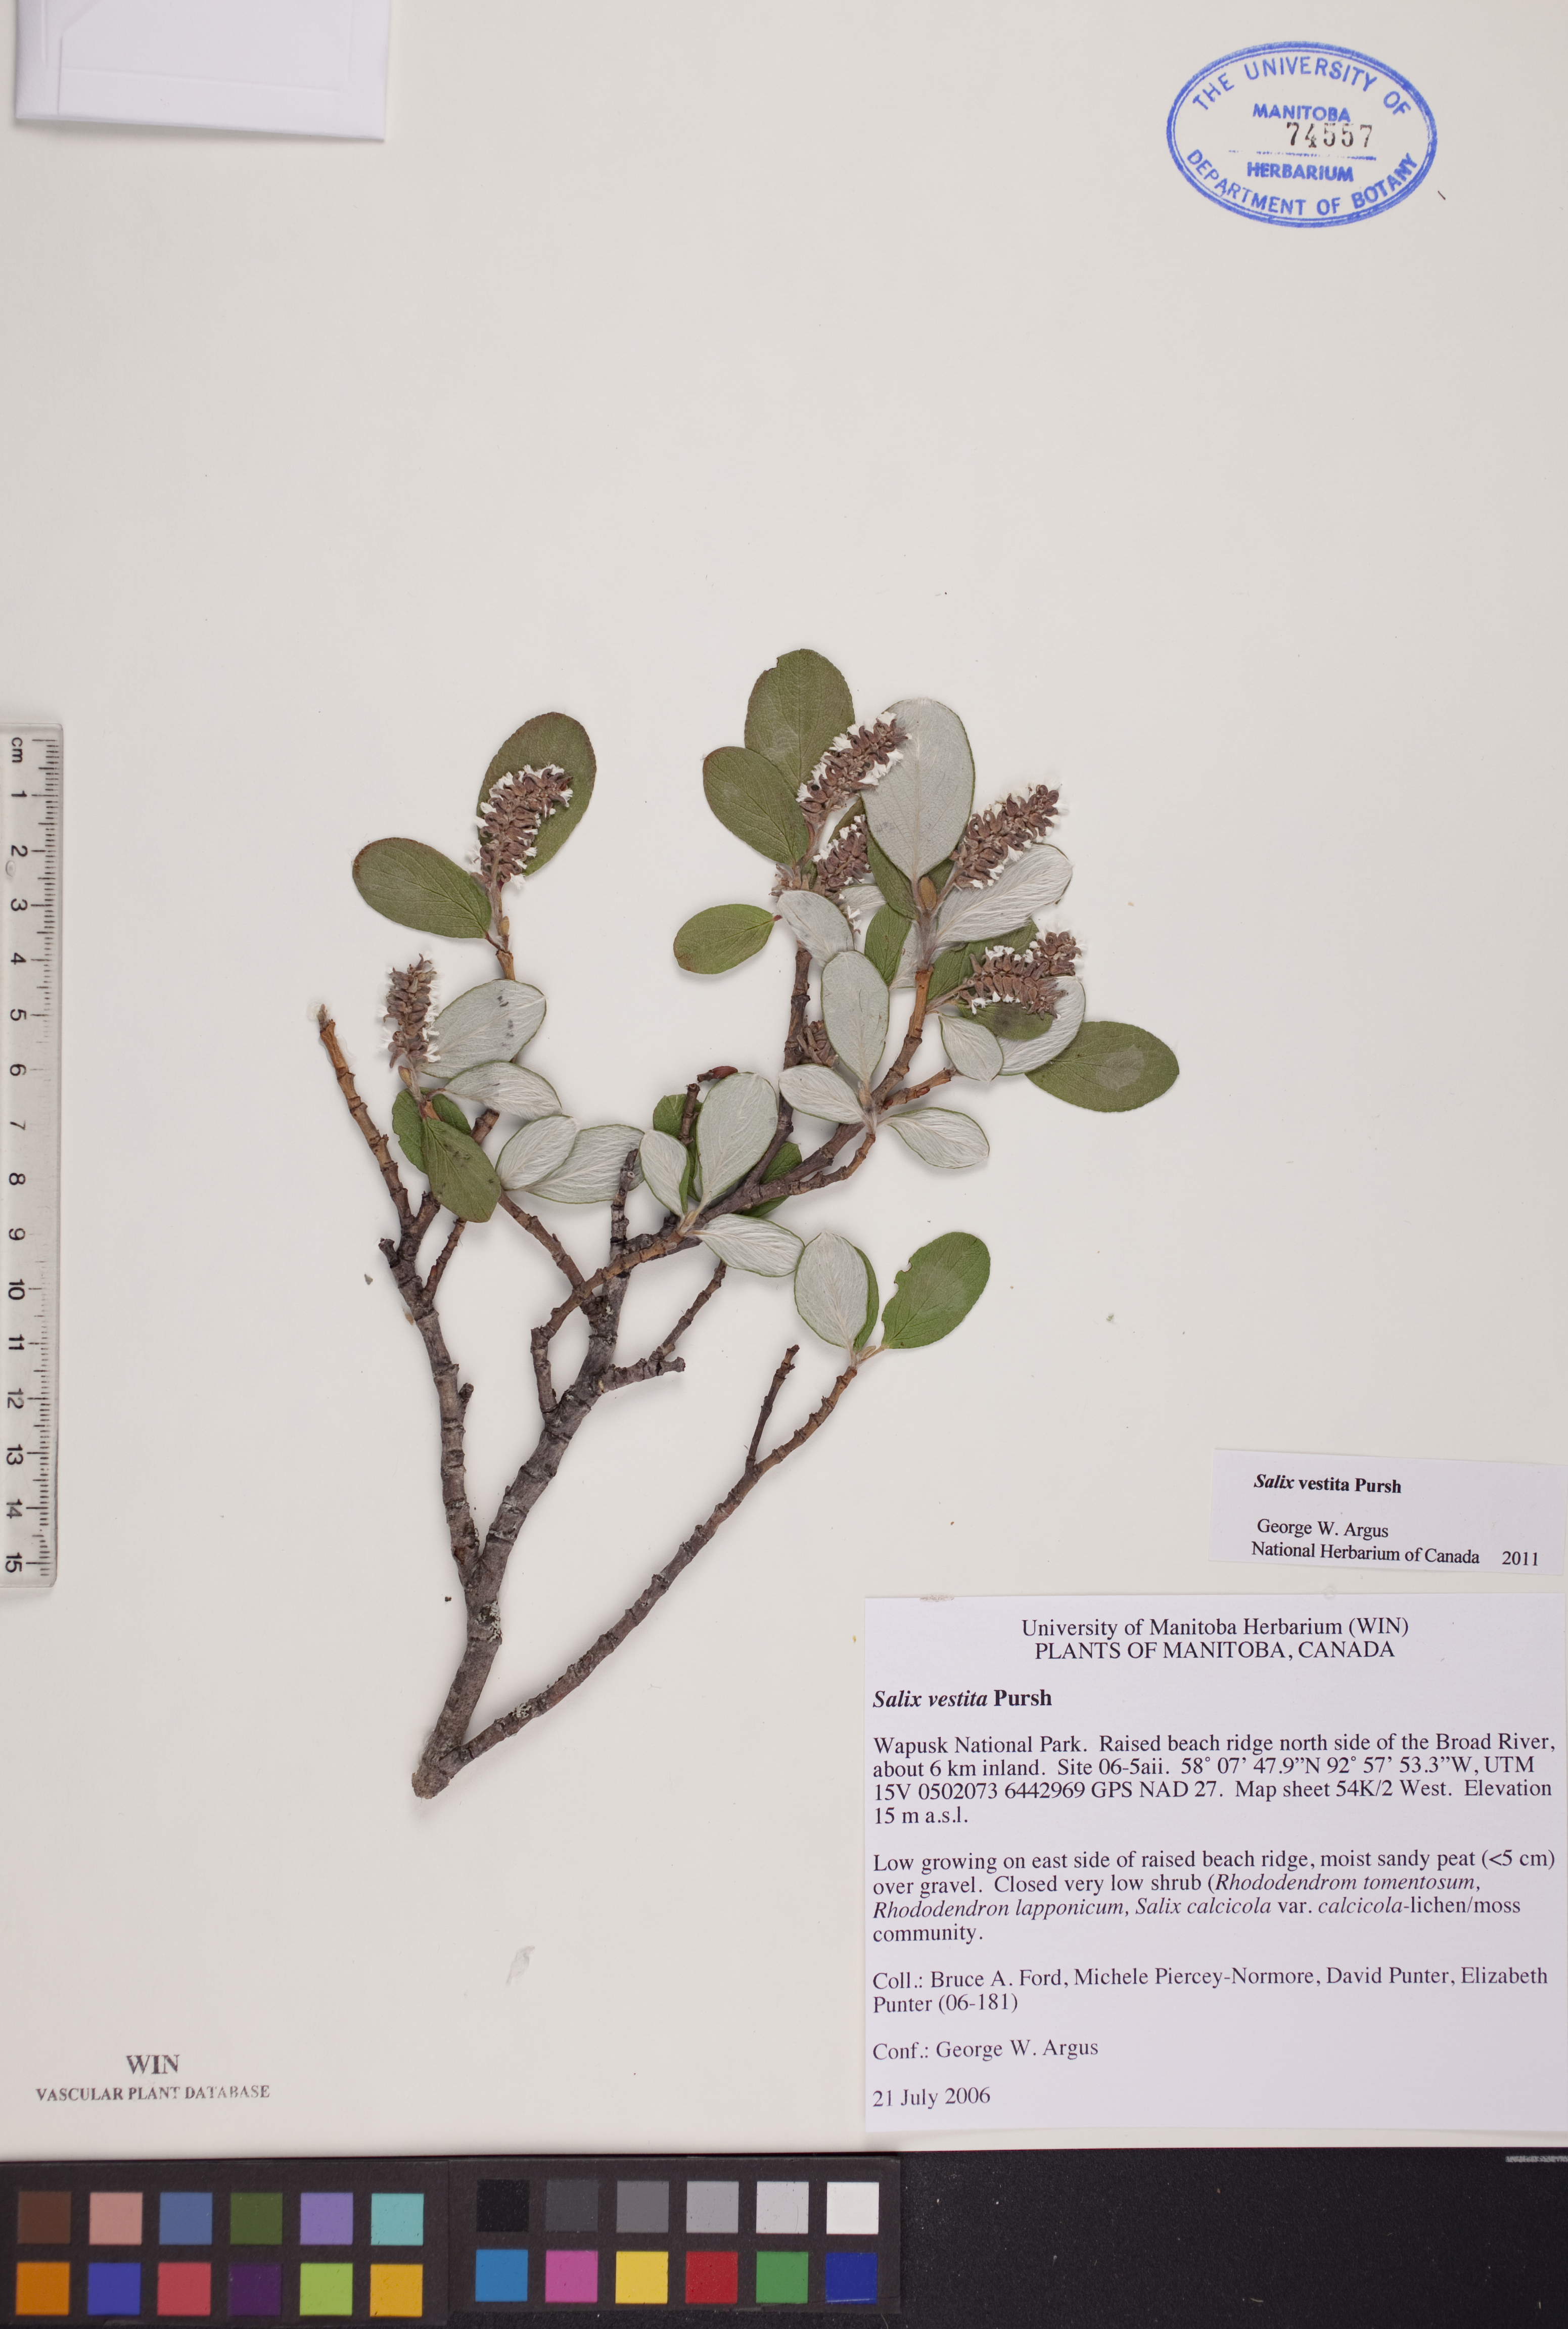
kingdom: Plantae
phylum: Tracheophyta
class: Magnoliopsida
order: Malpighiales
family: Salicaceae
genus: Salix
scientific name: Salix vestita
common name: Hairy willow
